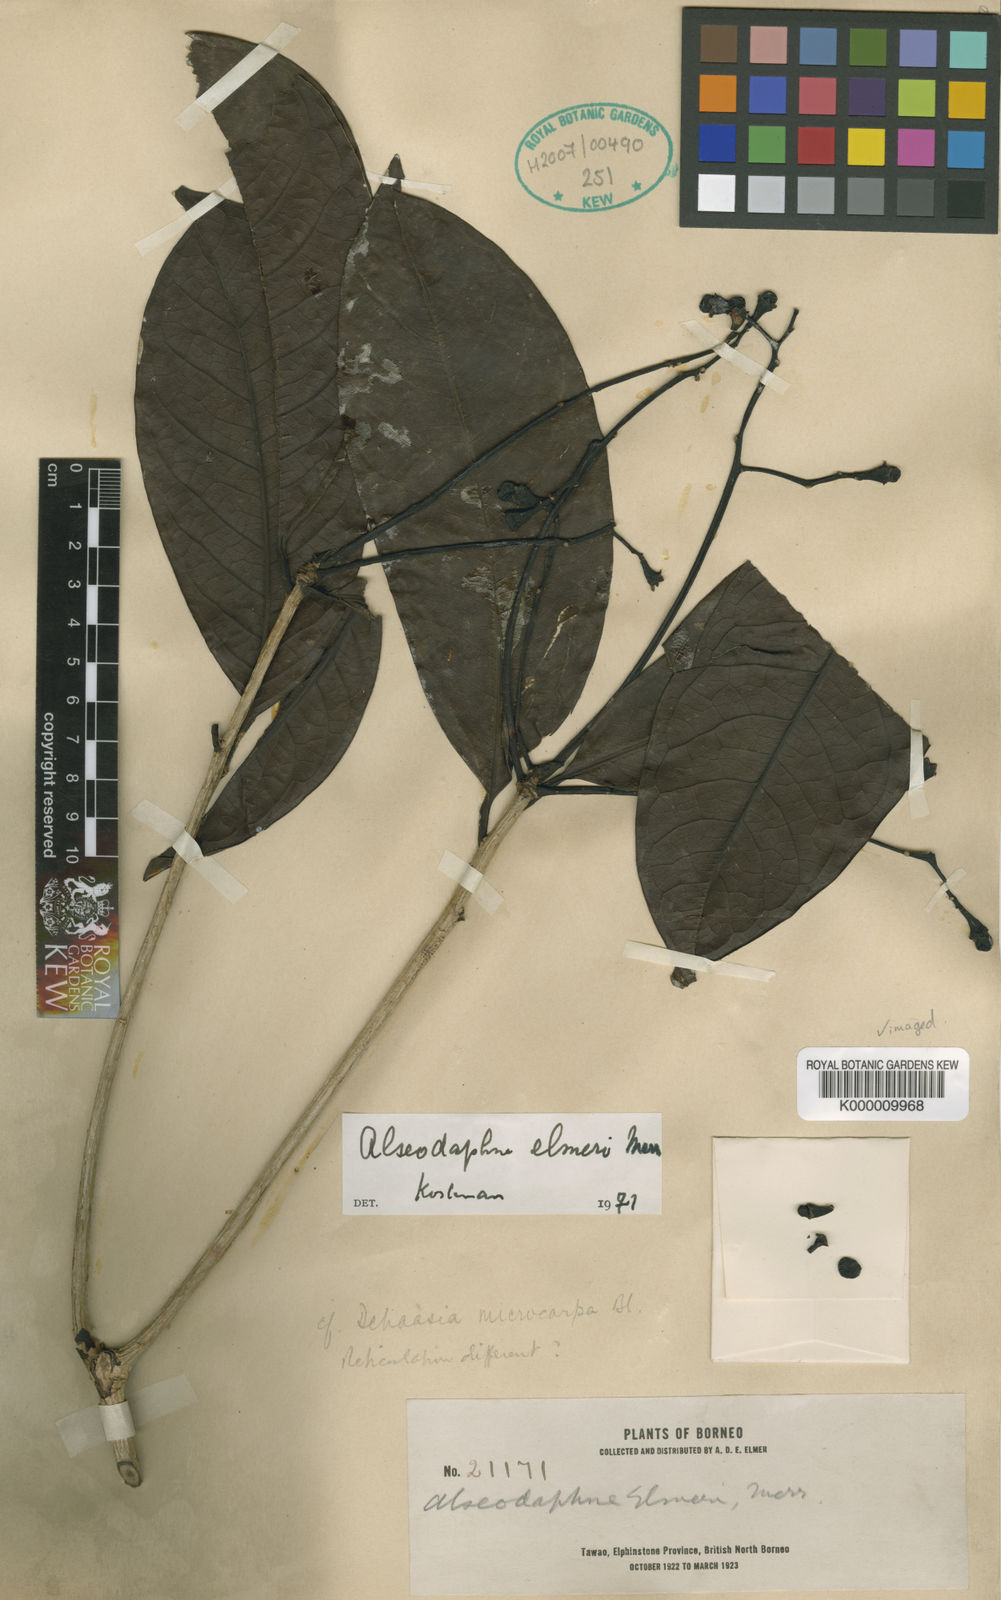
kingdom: Plantae
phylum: Tracheophyta
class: Magnoliopsida
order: Laurales
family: Lauraceae
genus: Alseodaphne
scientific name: Alseodaphne elmeri
